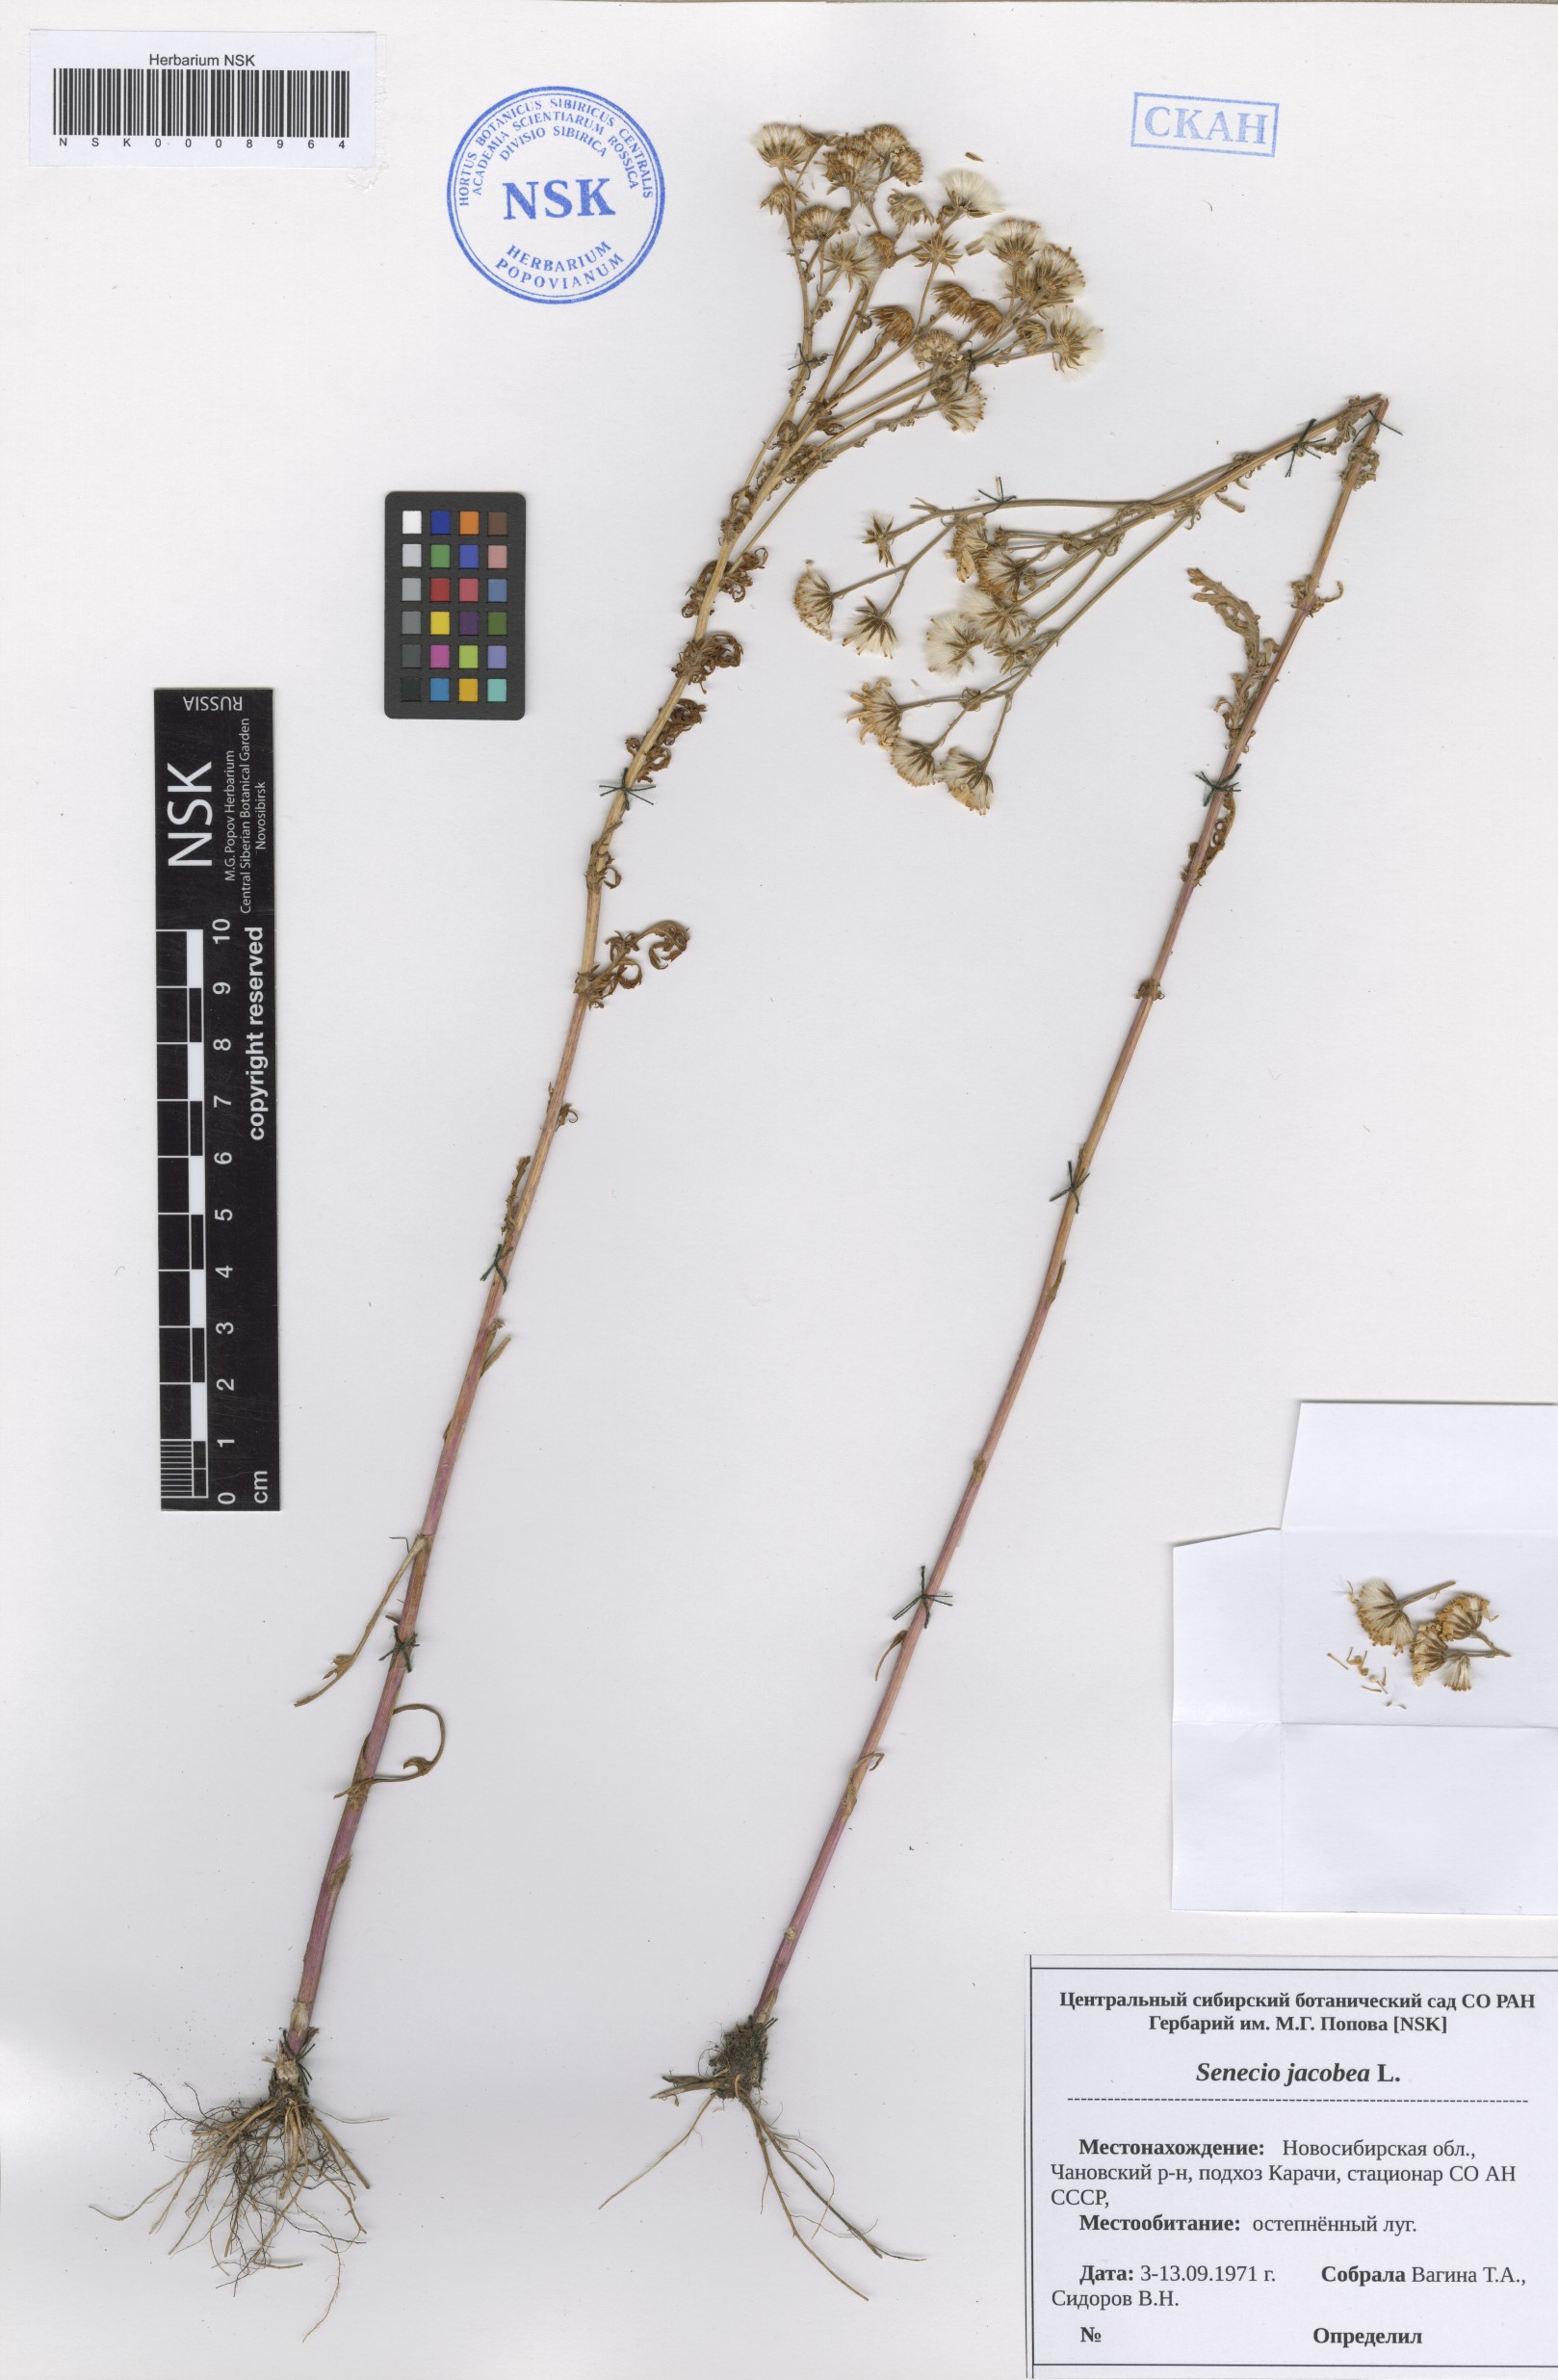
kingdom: Plantae
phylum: Tracheophyta
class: Magnoliopsida
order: Asterales
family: Asteraceae
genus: Jacobaea
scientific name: Jacobaea vulgaris
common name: Stinking willie
